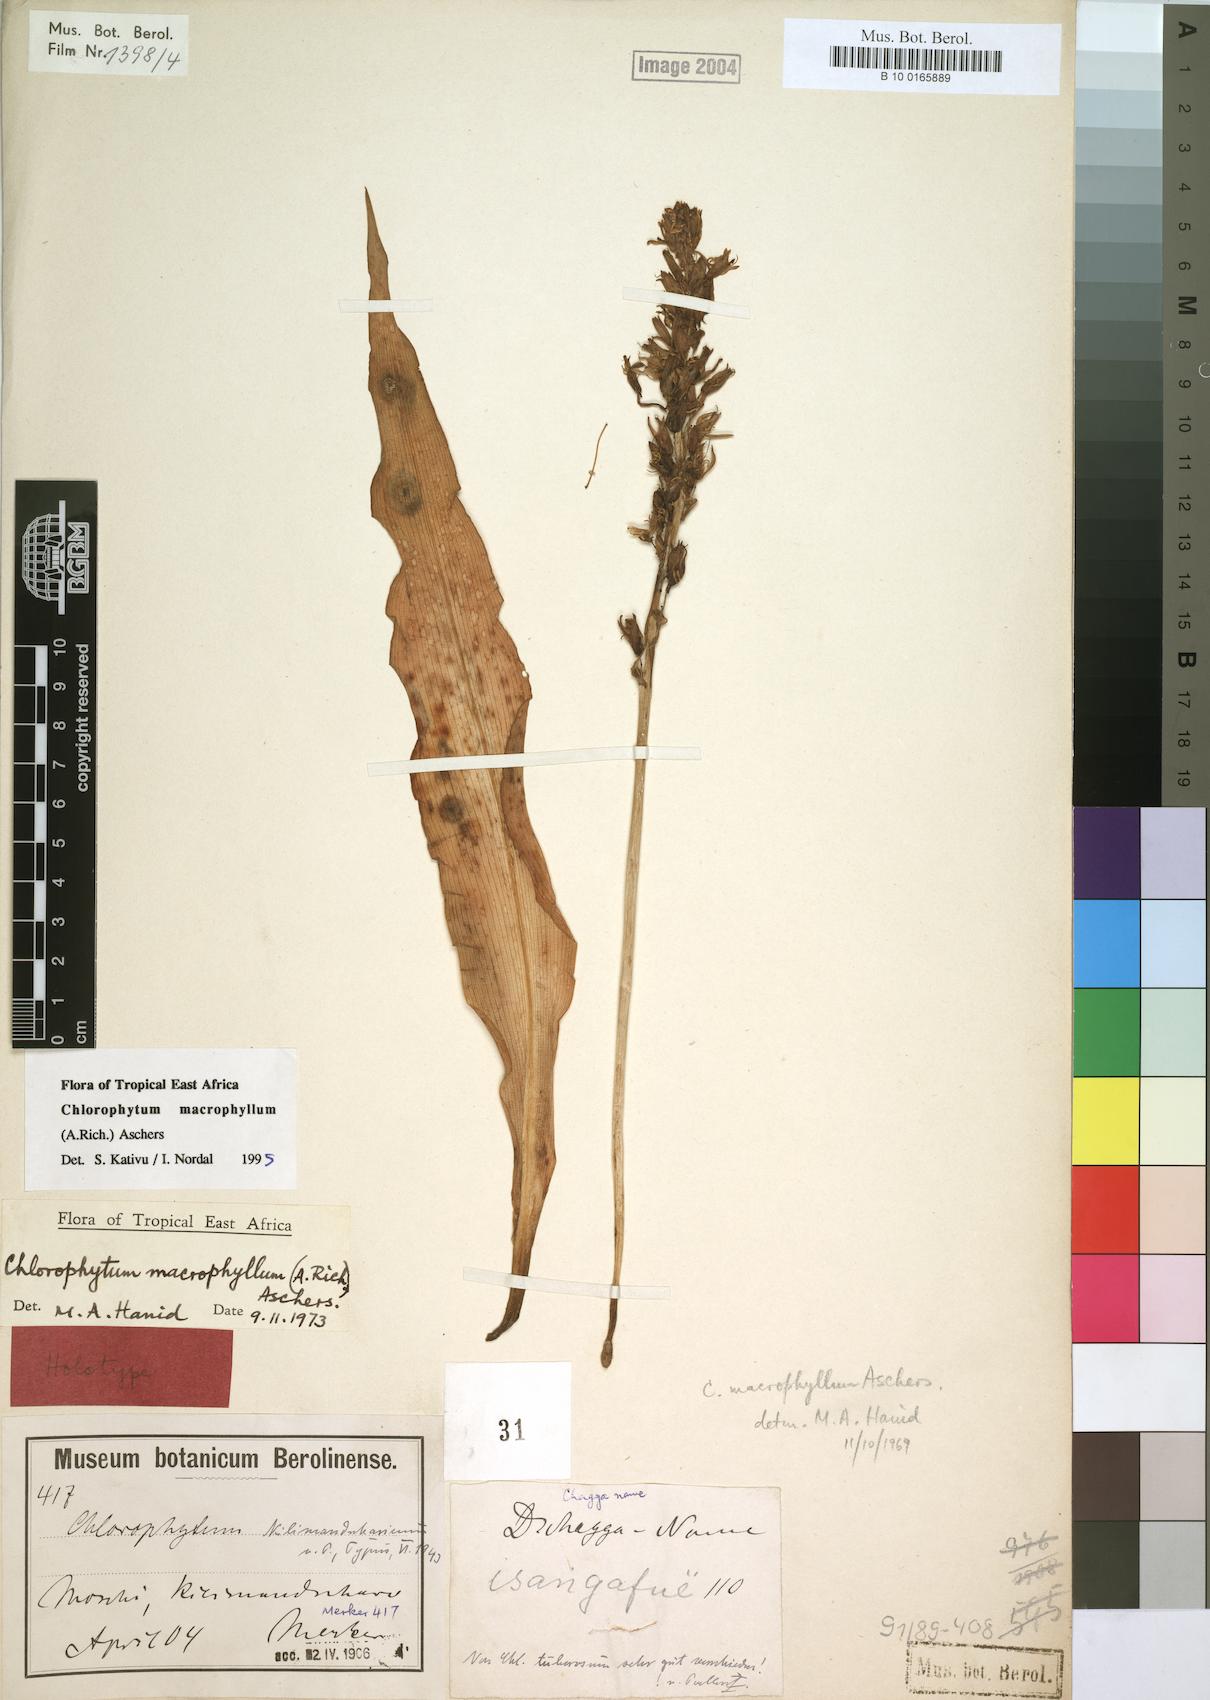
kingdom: Plantae
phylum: Tracheophyta
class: Liliopsida
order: Asparagales
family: Asparagaceae
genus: Chlorophytum
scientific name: Chlorophytum macrophyllum
